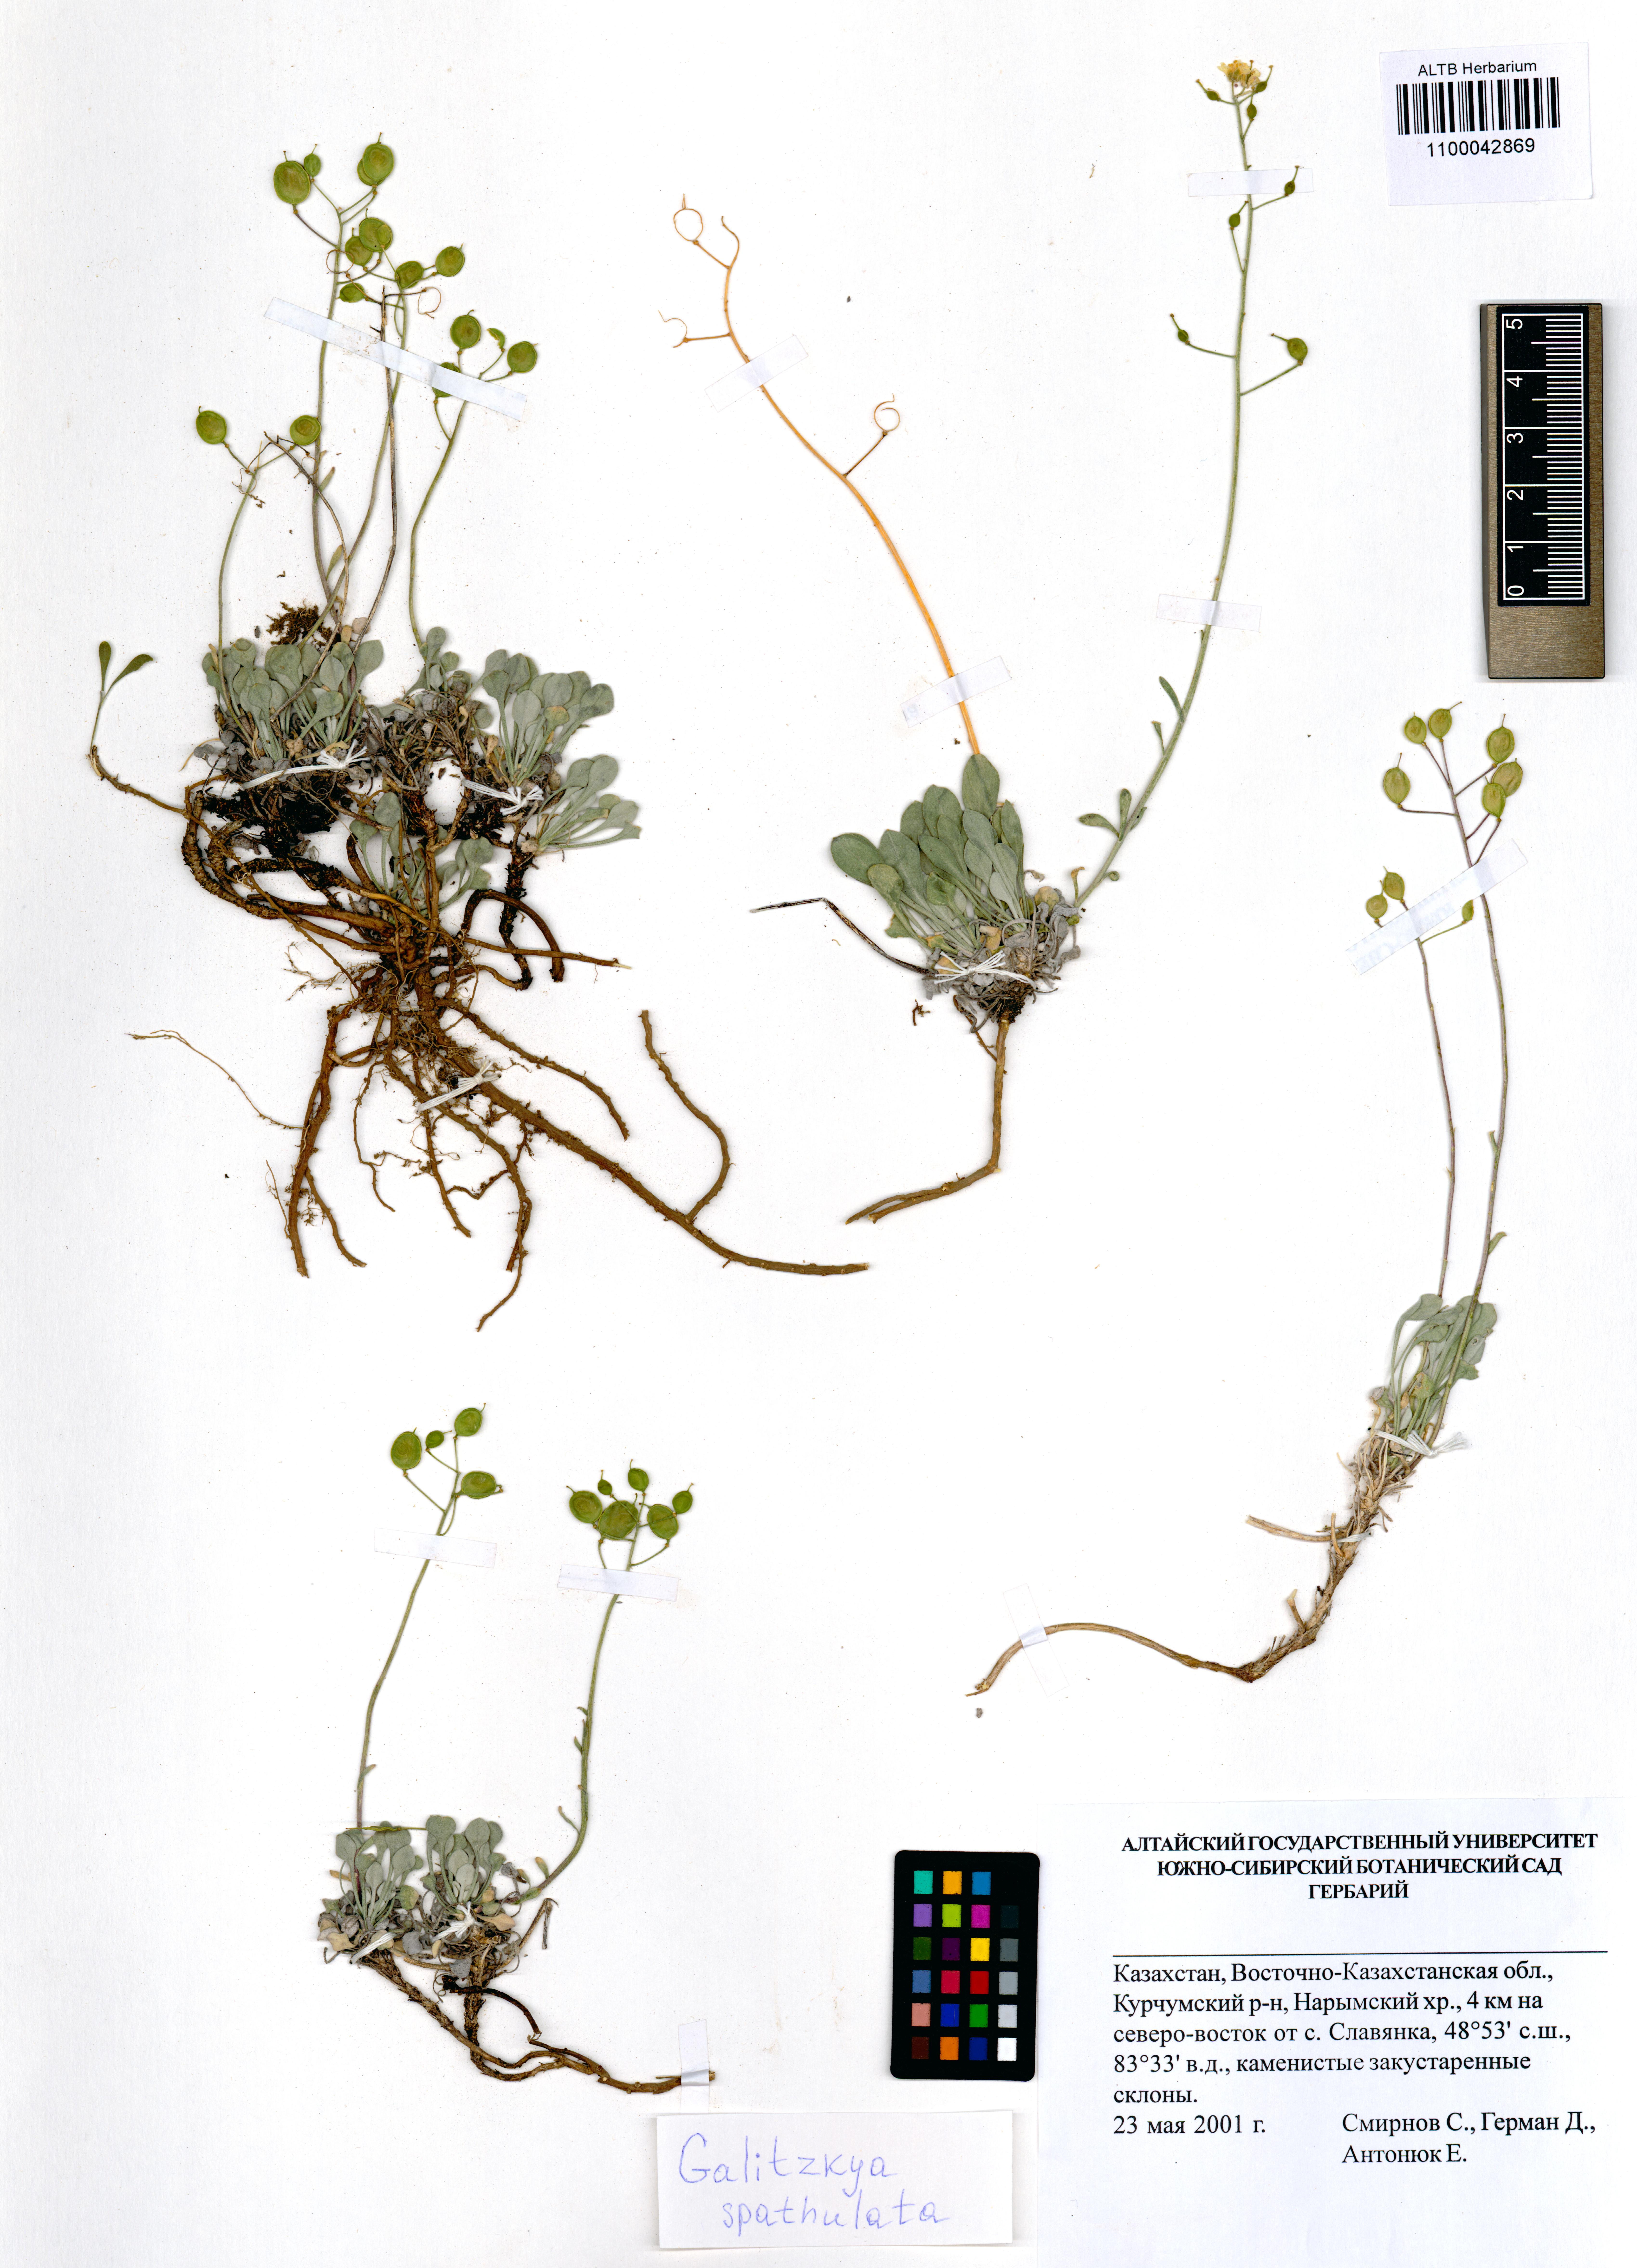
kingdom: Plantae
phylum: Tracheophyta
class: Magnoliopsida
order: Brassicales
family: Brassicaceae
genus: Galitzkya
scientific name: Galitzkya spathulata
